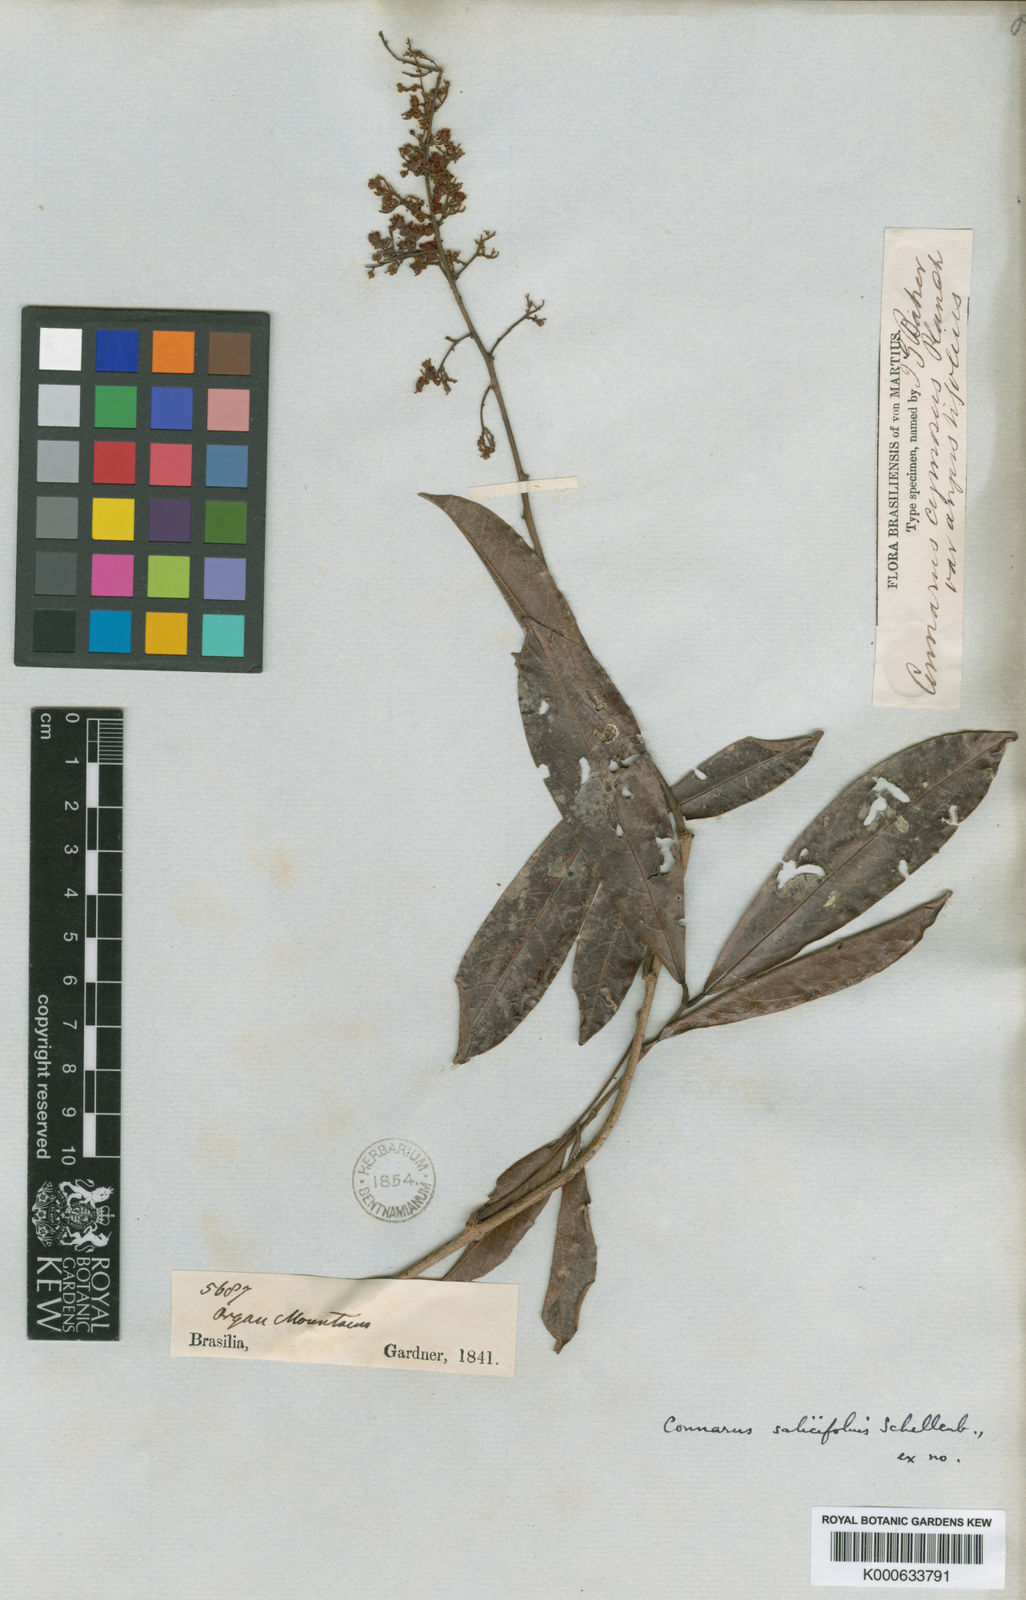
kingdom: Plantae
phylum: Tracheophyta
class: Magnoliopsida
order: Oxalidales
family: Connaraceae
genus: Connarus
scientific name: Connarus beyrichii
